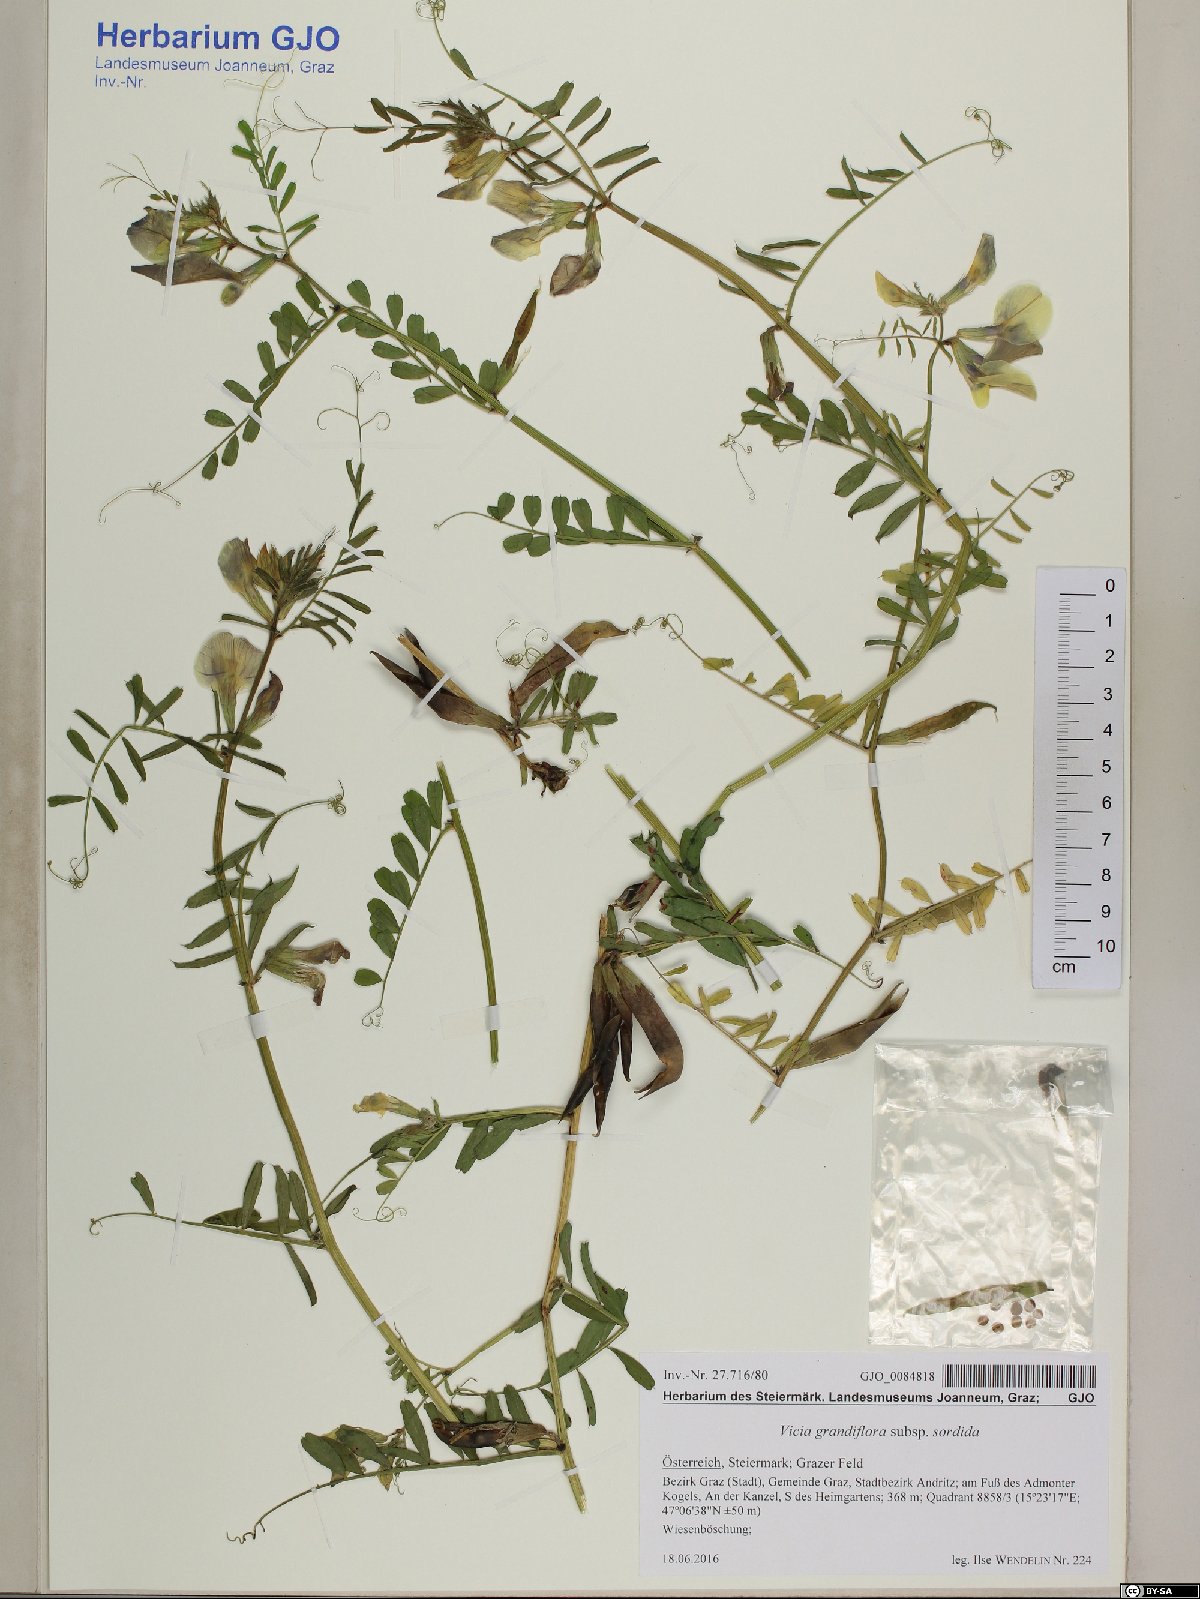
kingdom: Plantae
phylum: Tracheophyta
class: Magnoliopsida
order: Fabales
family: Fabaceae
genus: Vicia
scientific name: Vicia grandiflora
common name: Large yellow vetch
